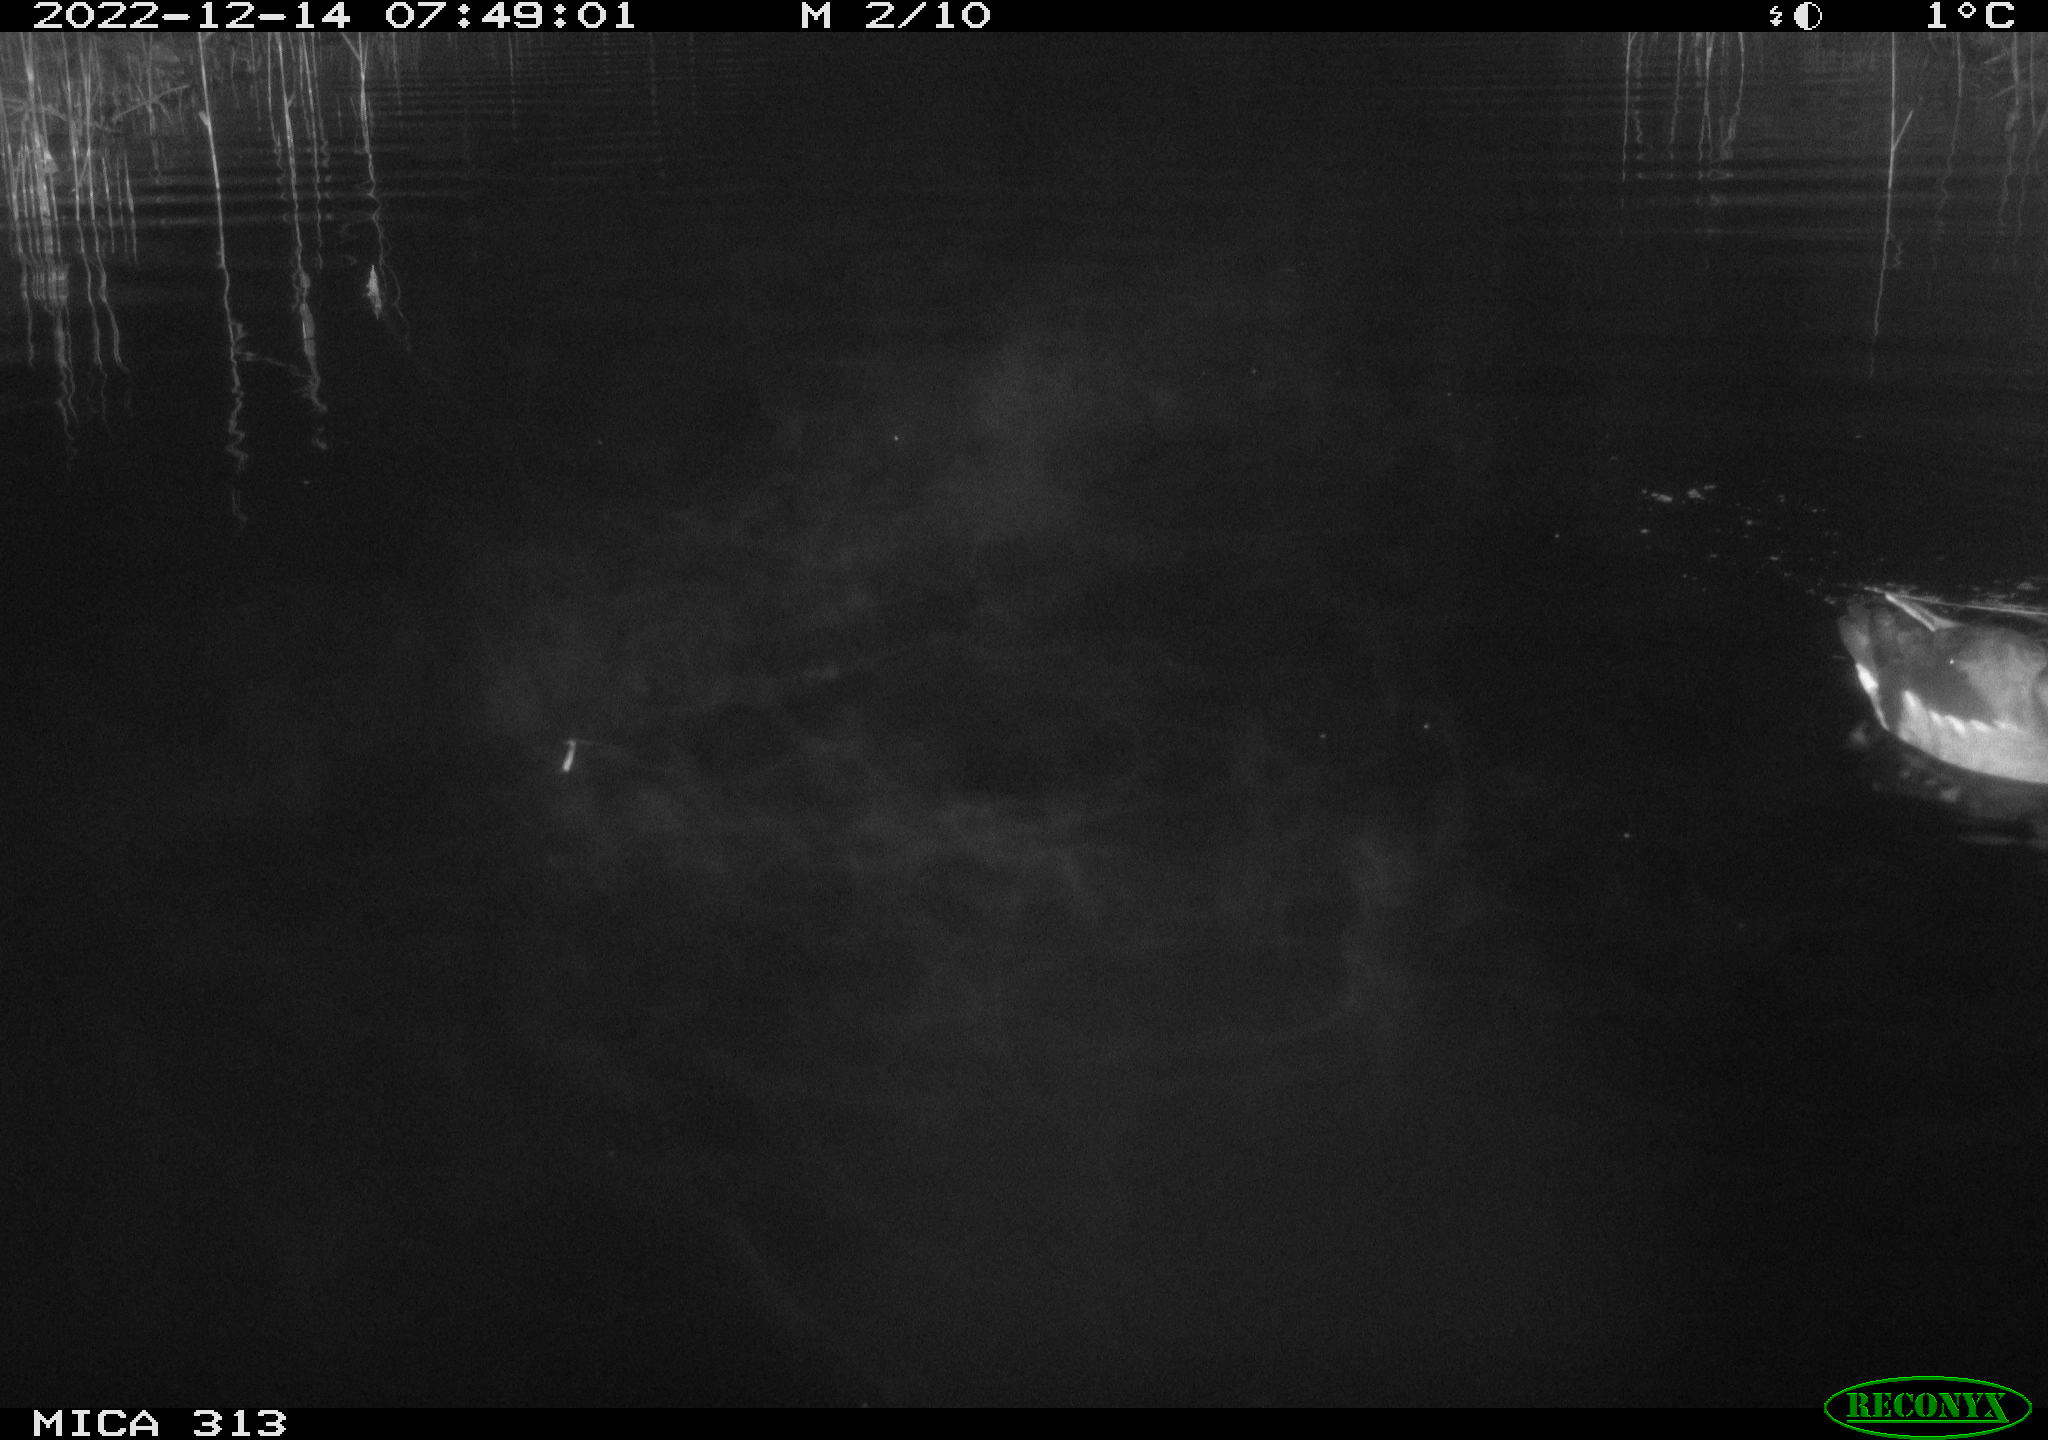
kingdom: Animalia
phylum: Chordata
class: Aves
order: Anseriformes
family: Anatidae
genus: Anas
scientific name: Anas
